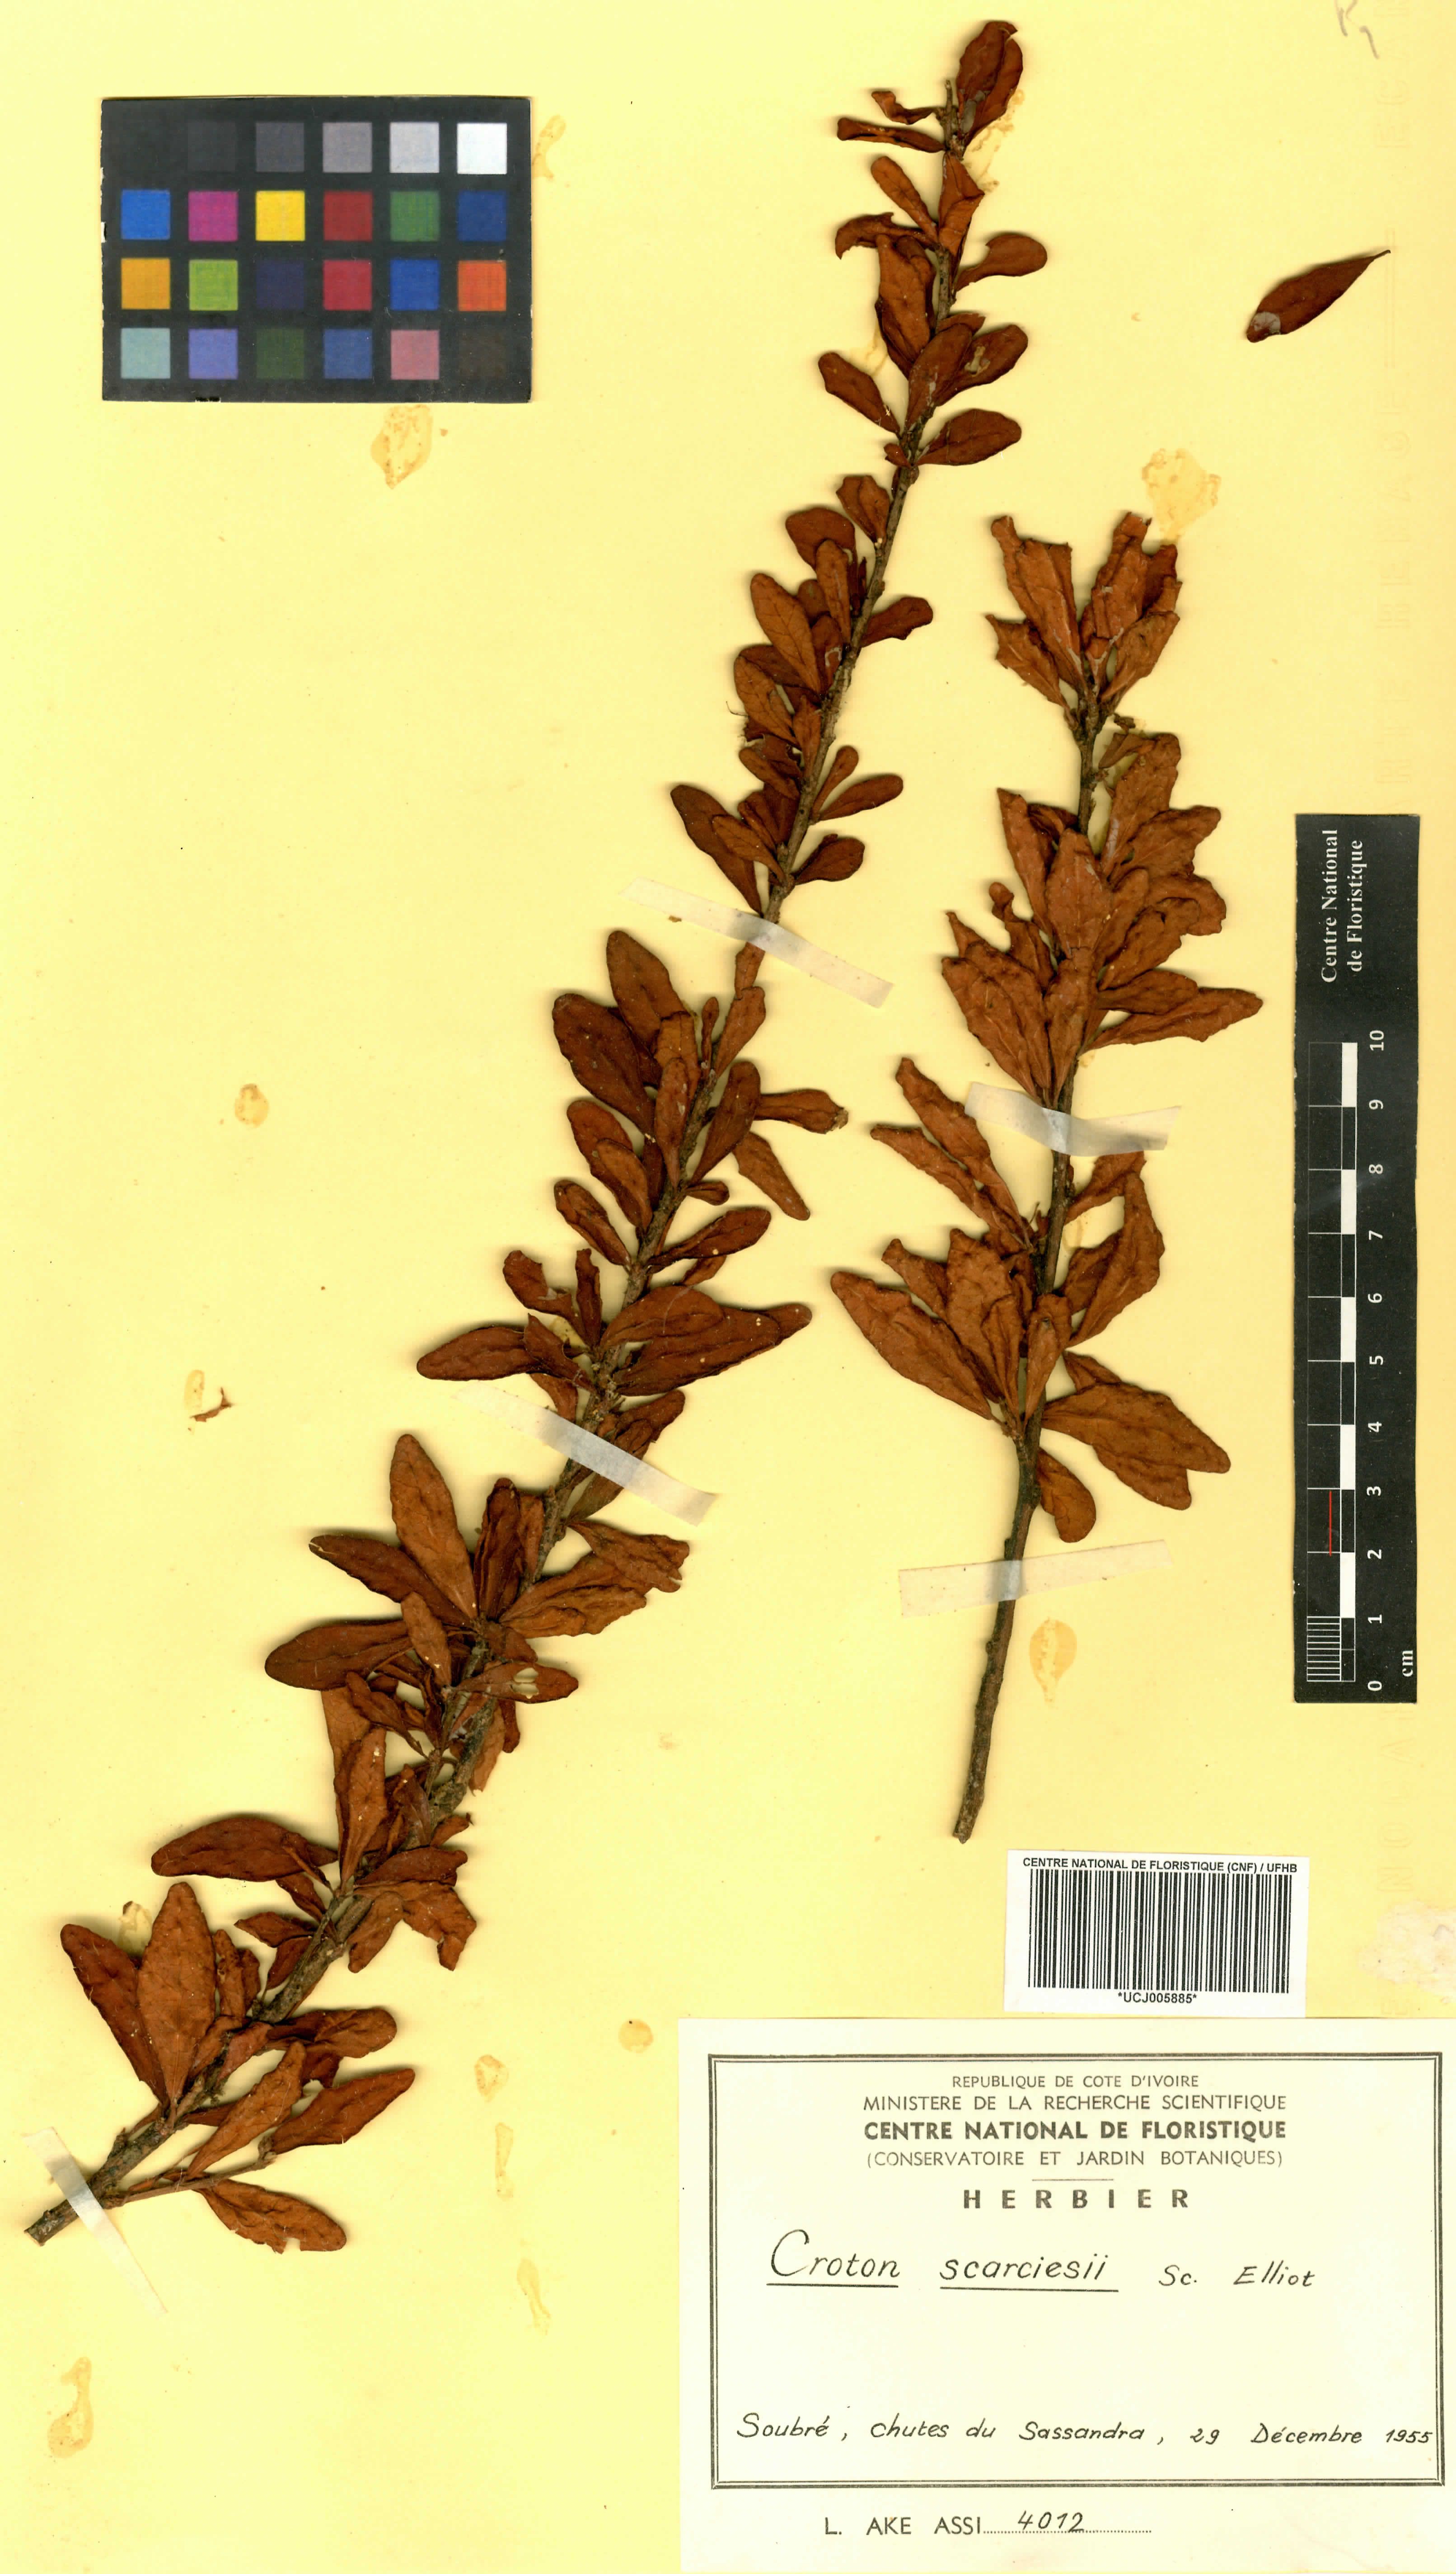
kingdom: Plantae
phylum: Tracheophyta
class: Magnoliopsida
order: Malpighiales
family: Euphorbiaceae
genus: Karima
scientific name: Karima scarciesii
